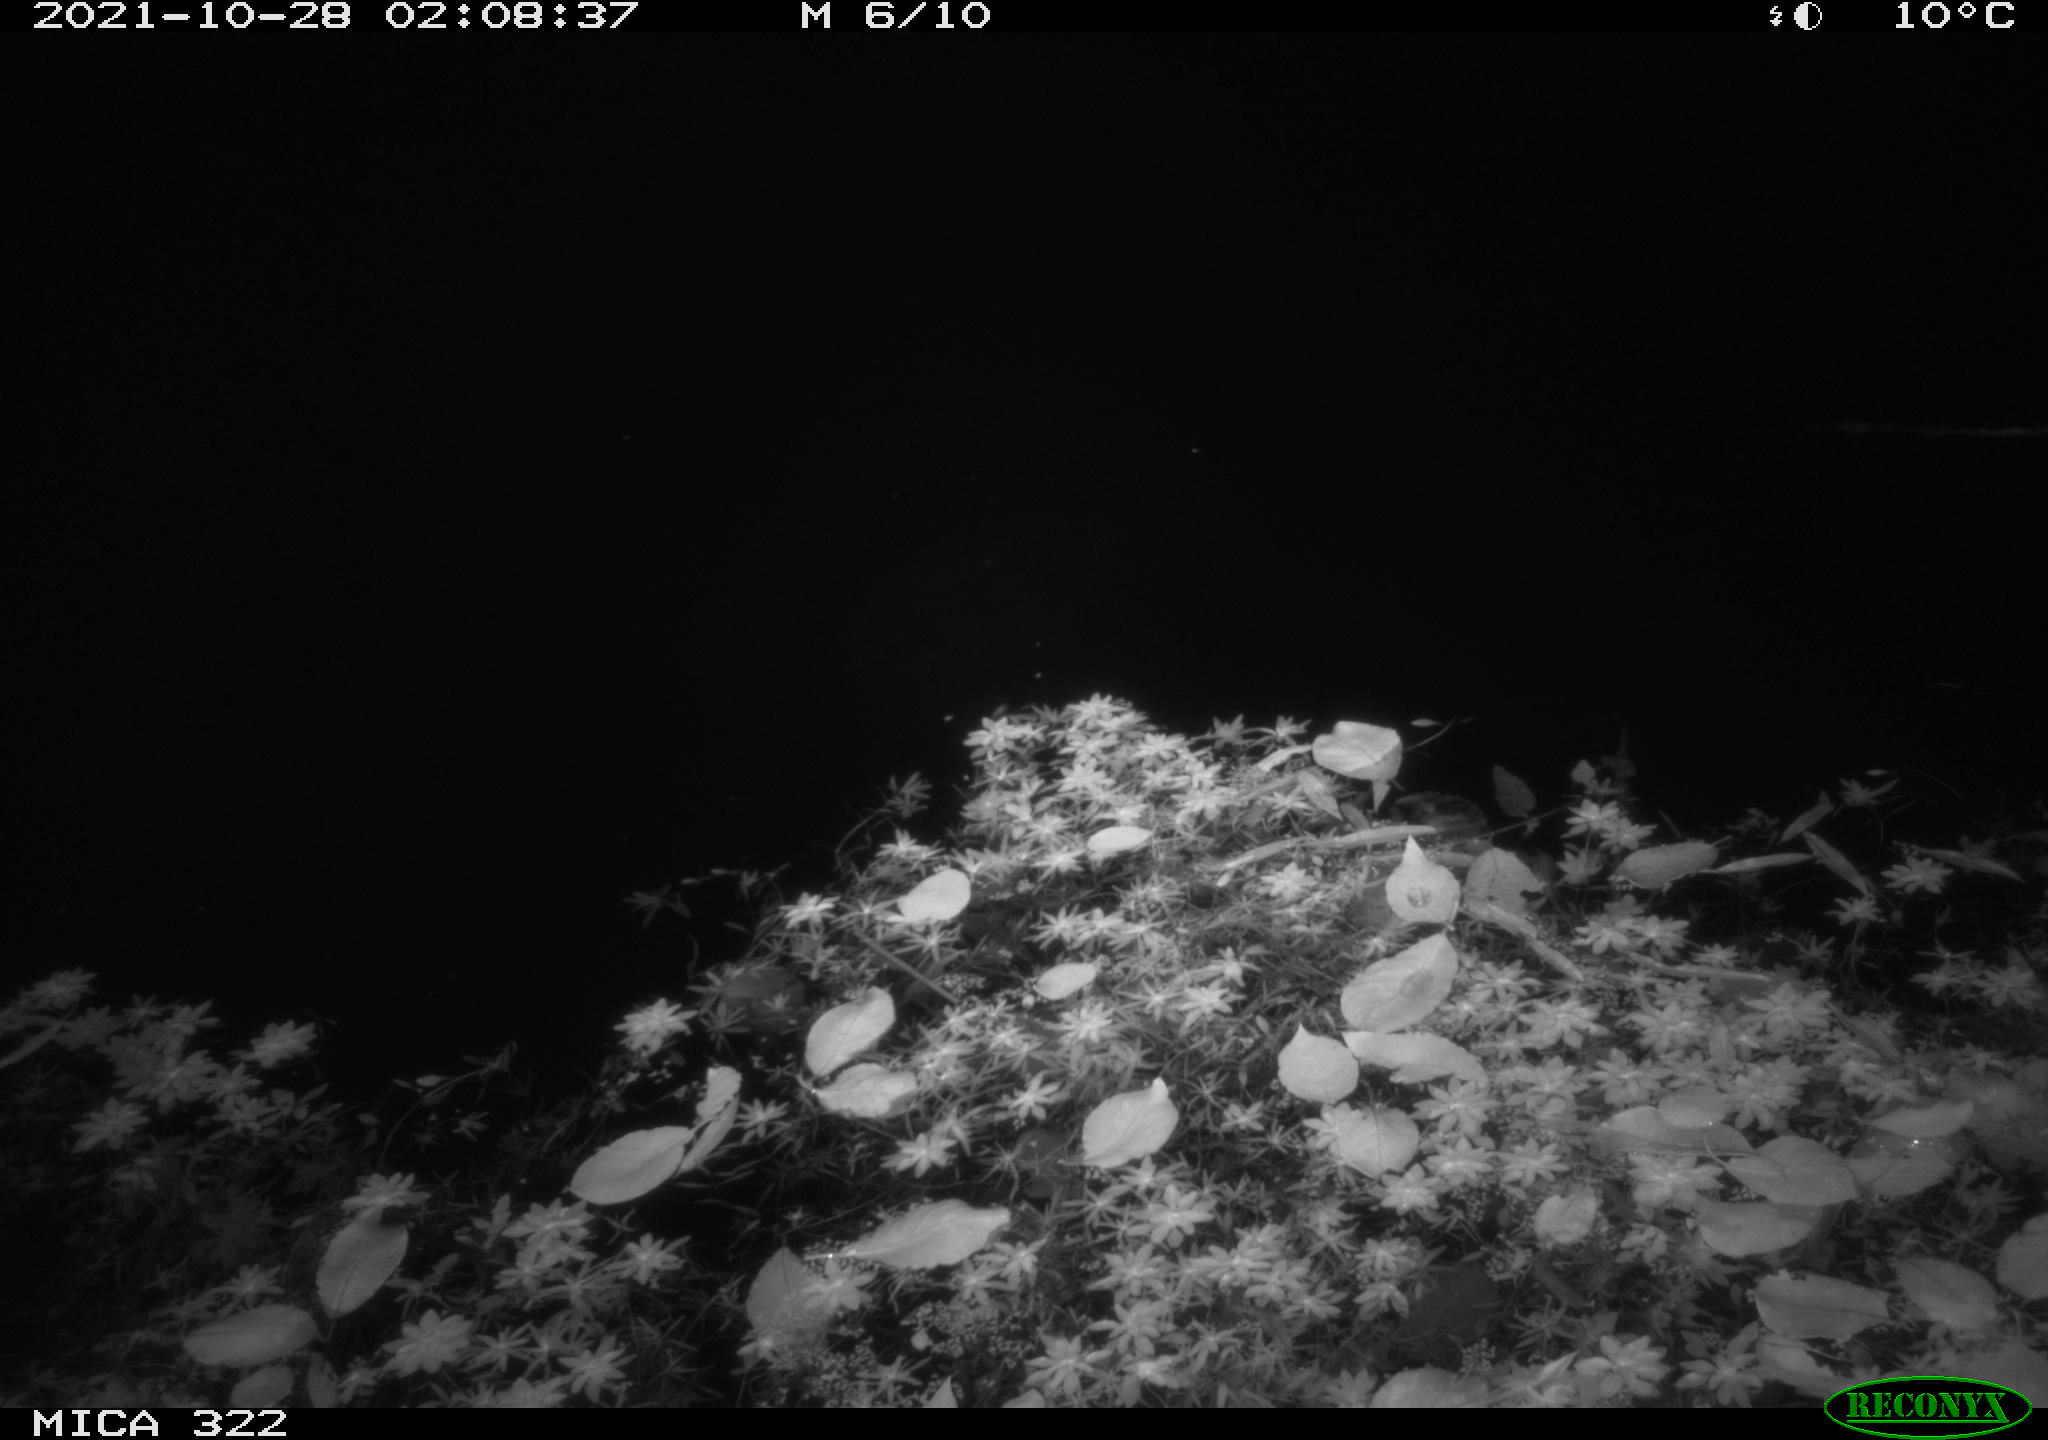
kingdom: Animalia
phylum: Chordata
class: Mammalia
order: Rodentia
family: Muridae
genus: Rattus
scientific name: Rattus norvegicus
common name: Brown rat
